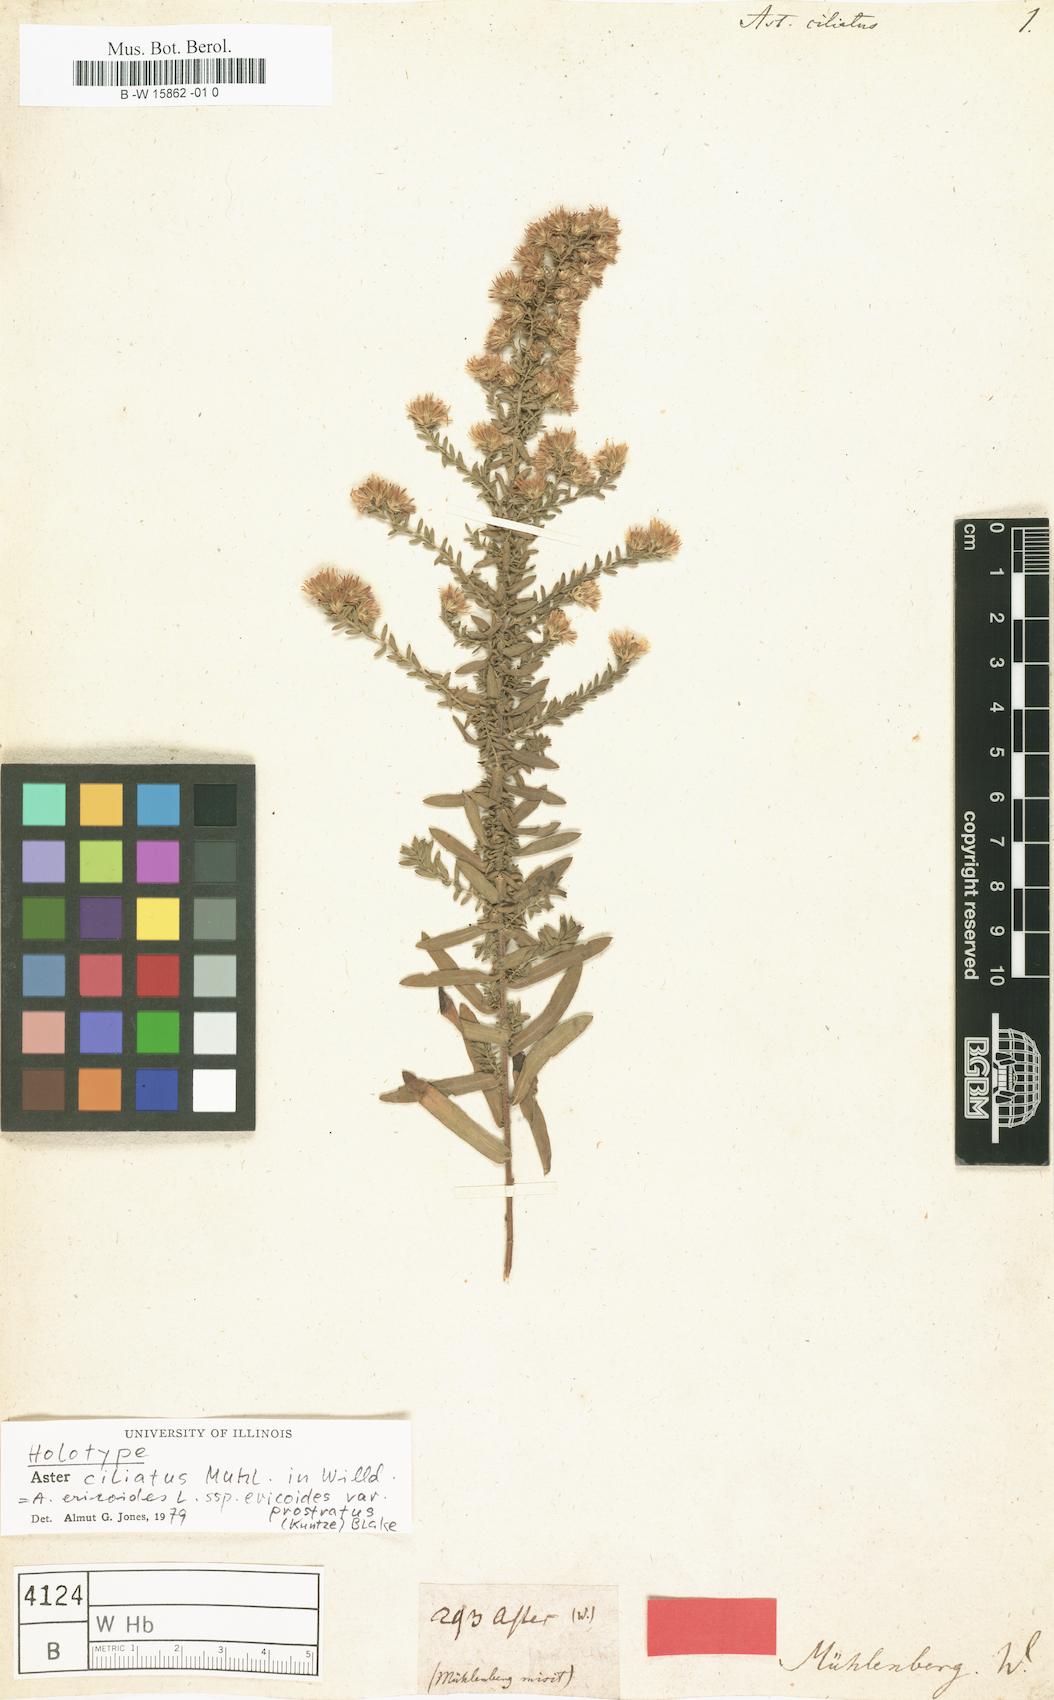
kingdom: Plantae
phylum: Tracheophyta
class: Magnoliopsida
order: Asterales
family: Asteraceae
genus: Aster
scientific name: Aster ciliatus
